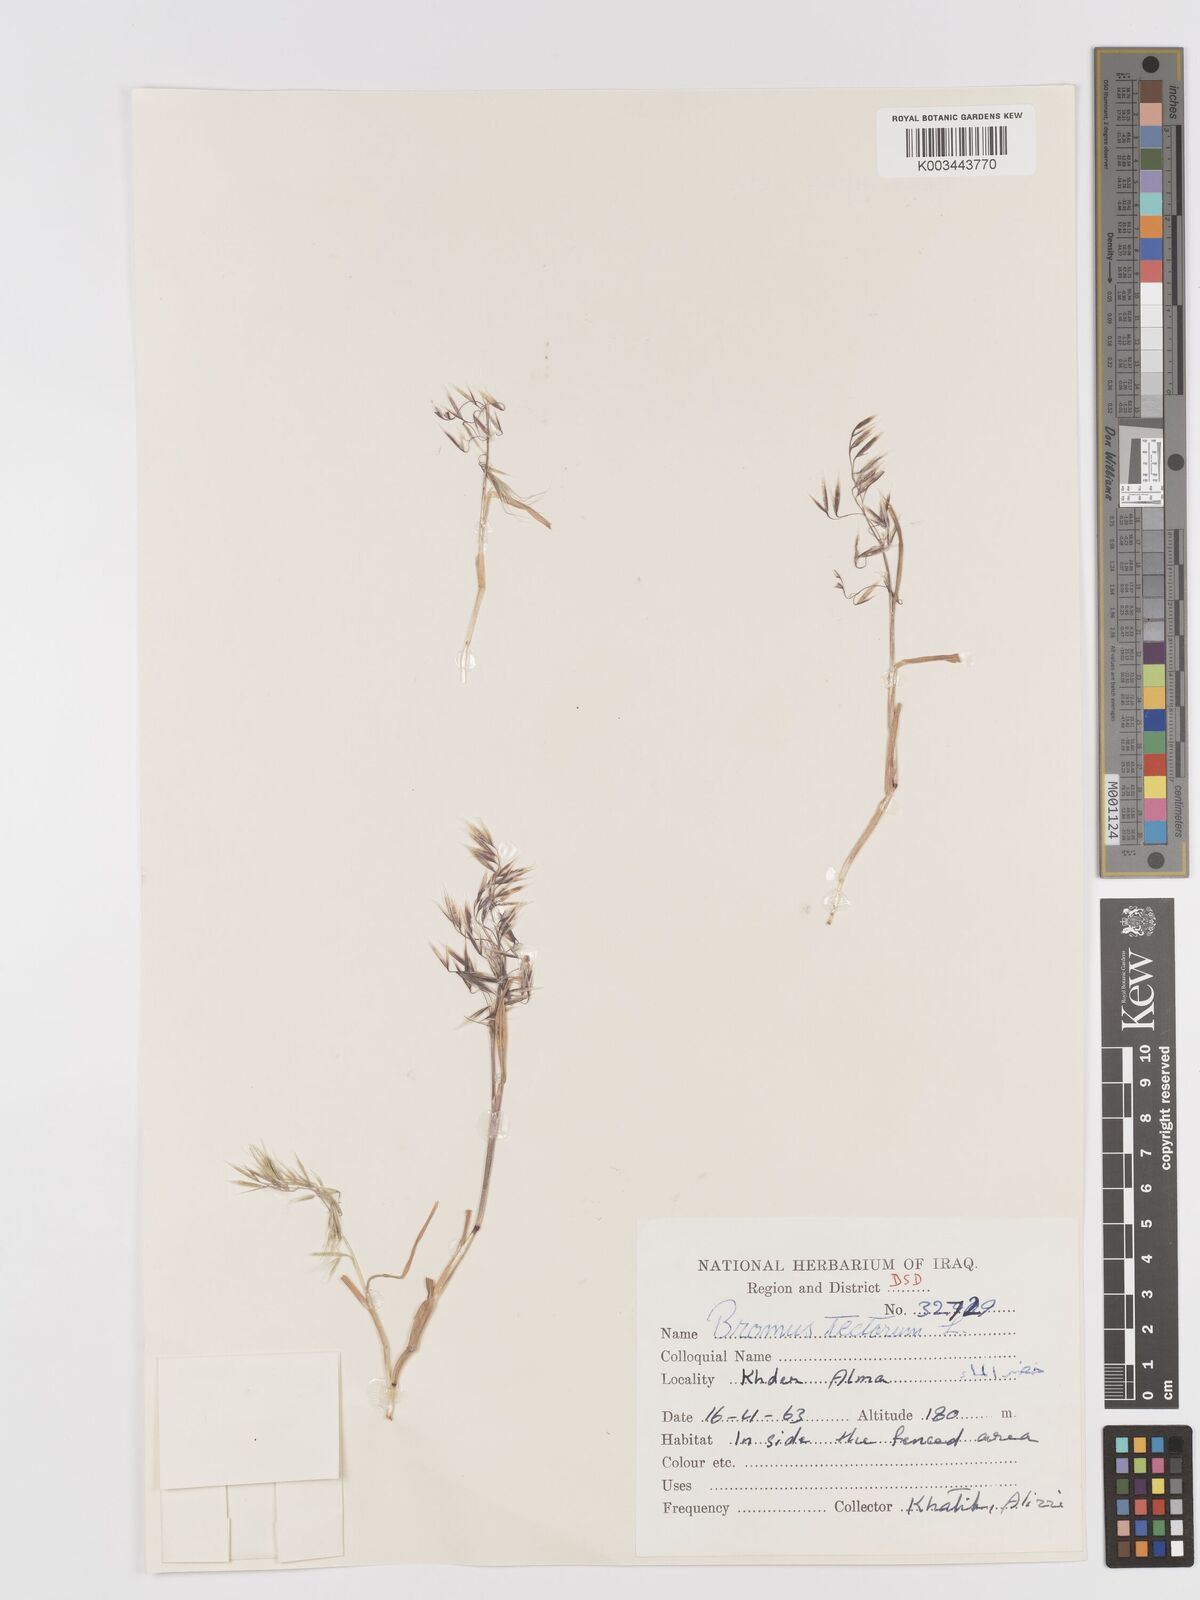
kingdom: Plantae
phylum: Tracheophyta
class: Liliopsida
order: Poales
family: Poaceae
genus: Bromus
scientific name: Bromus tectorum
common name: Cheatgrass
